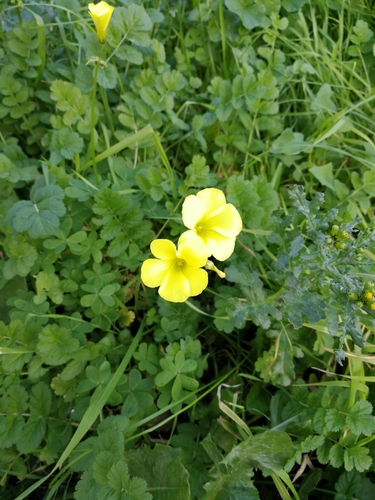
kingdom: Plantae
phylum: Tracheophyta
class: Magnoliopsida
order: Oxalidales
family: Oxalidaceae
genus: Oxalis
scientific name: Oxalis pes-caprae
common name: Bermuda-buttercup
